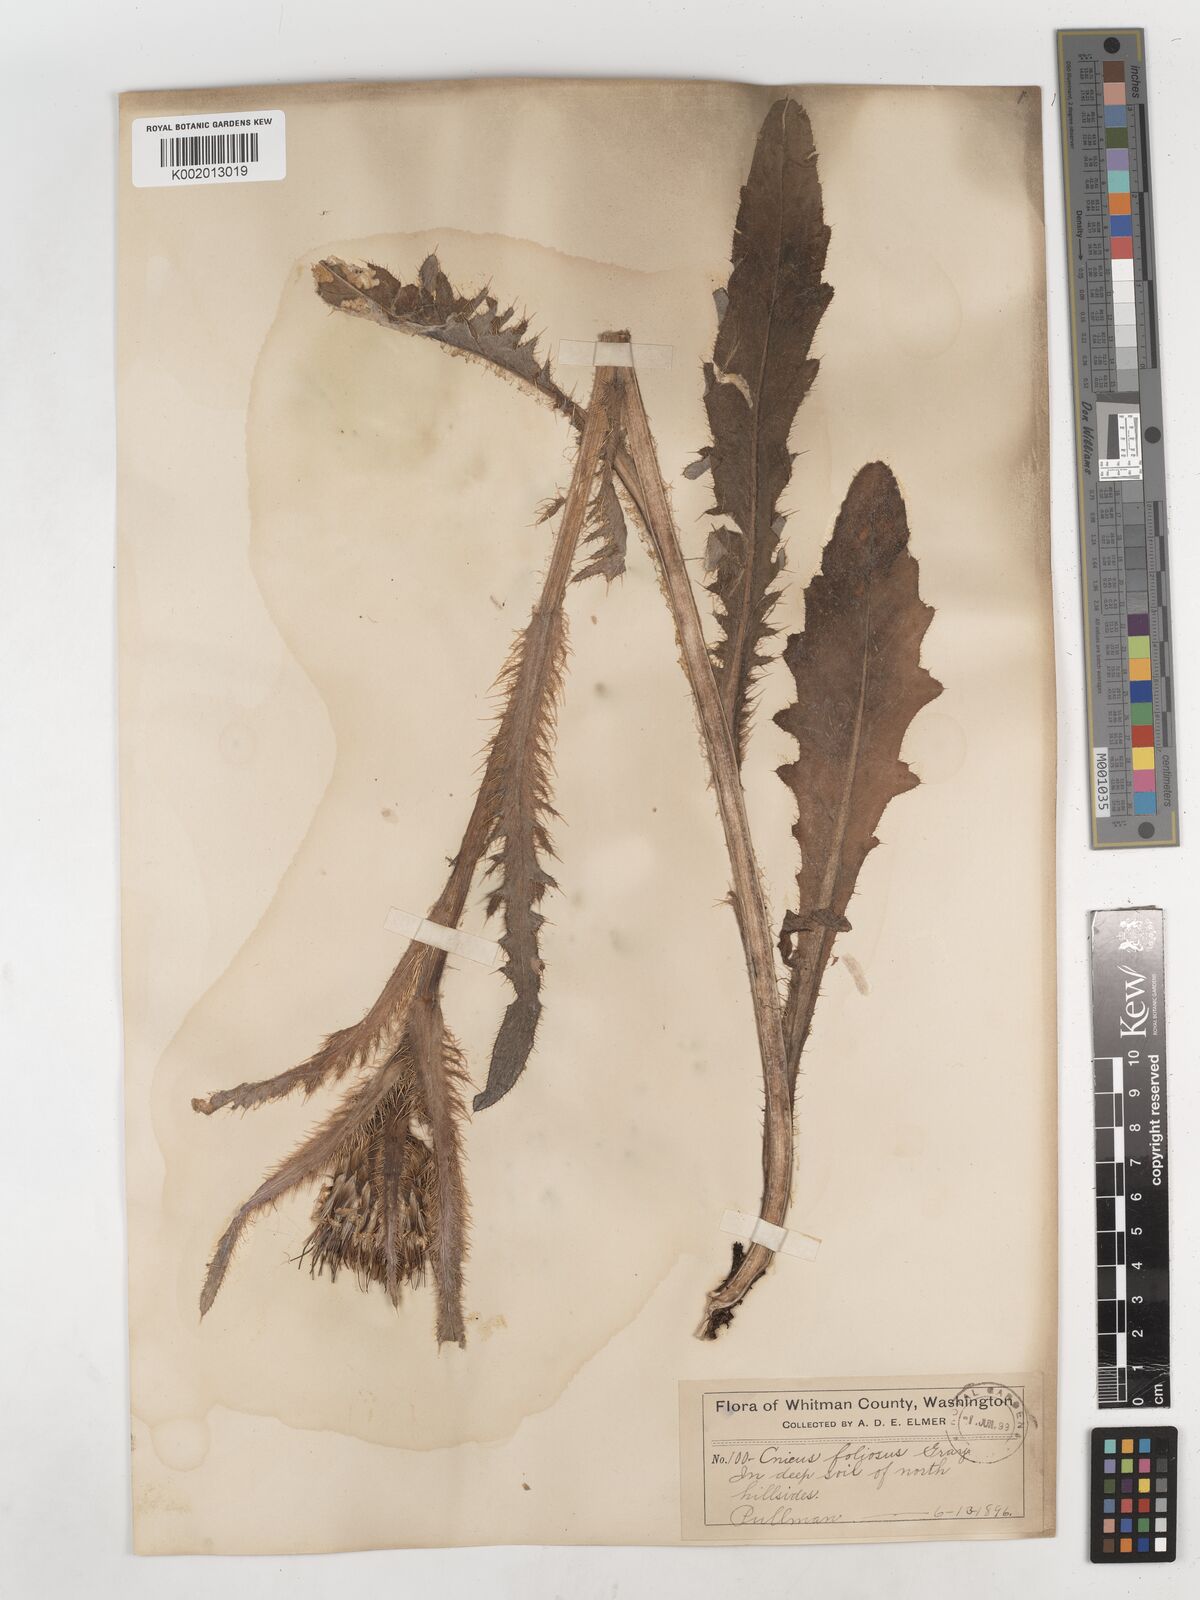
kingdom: Plantae
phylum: Tracheophyta
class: Magnoliopsida
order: Asterales
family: Asteraceae
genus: Cirsium
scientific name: Cirsium foliosum
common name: Elk thistle
